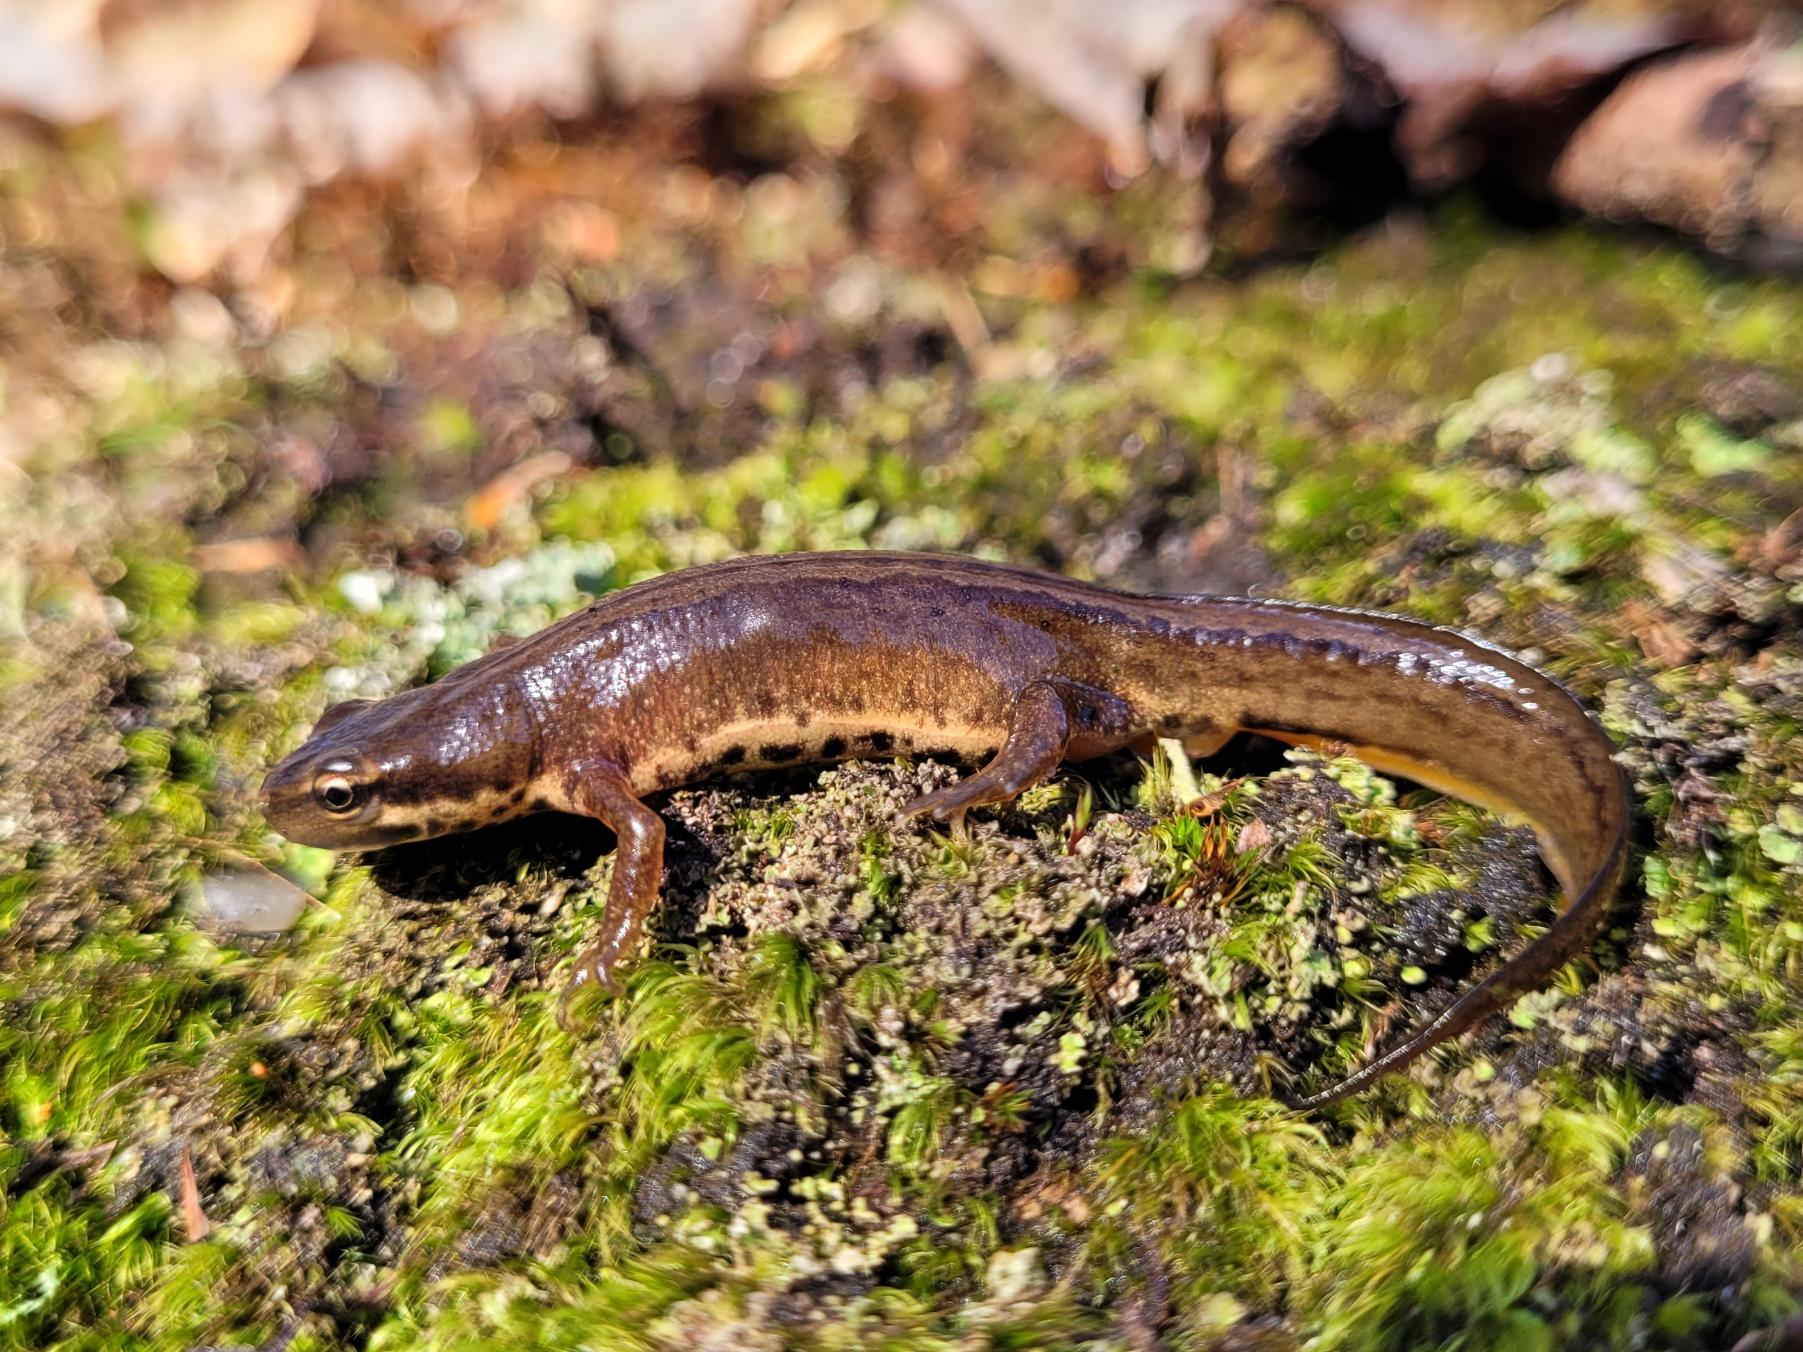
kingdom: Animalia
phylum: Chordata
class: Amphibia
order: Caudata
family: Salamandridae
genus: Lissotriton
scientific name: Lissotriton vulgaris
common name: Lille vandsalamander
